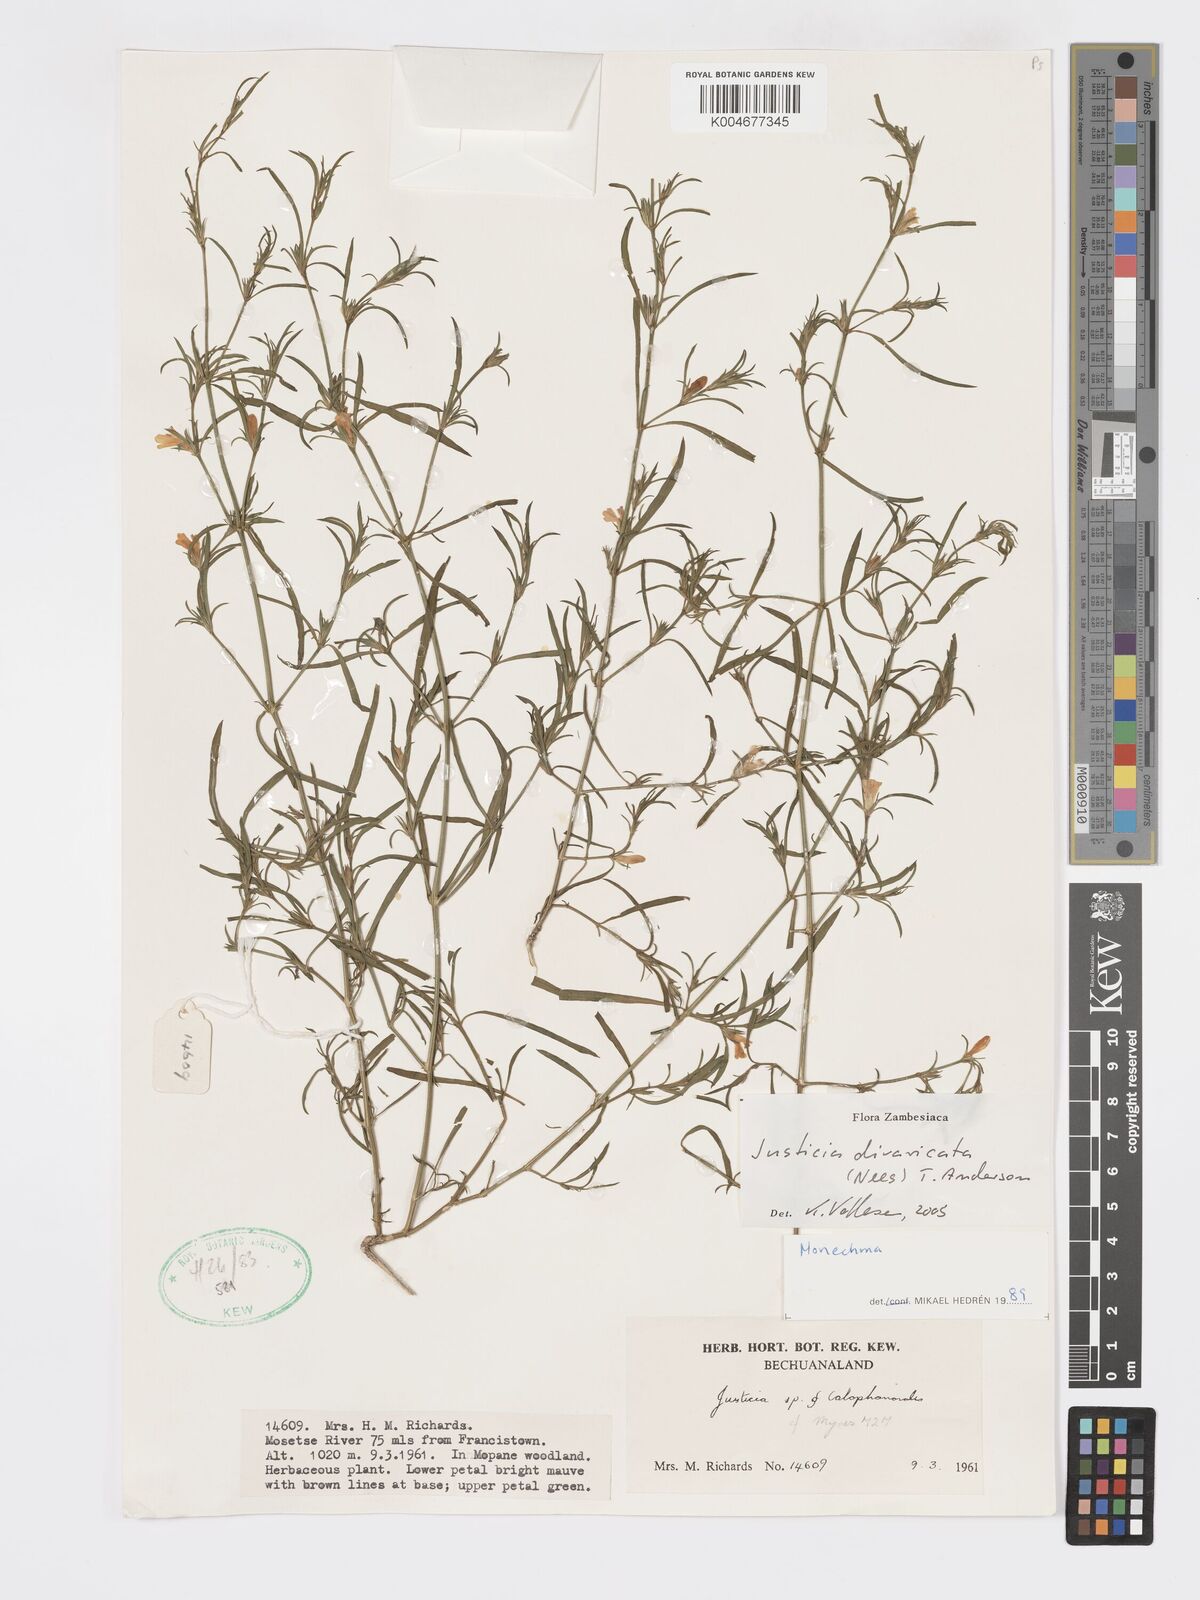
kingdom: Plantae
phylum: Tracheophyta
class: Magnoliopsida
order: Lamiales
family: Acanthaceae
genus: Pogonospermum
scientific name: Pogonospermum
